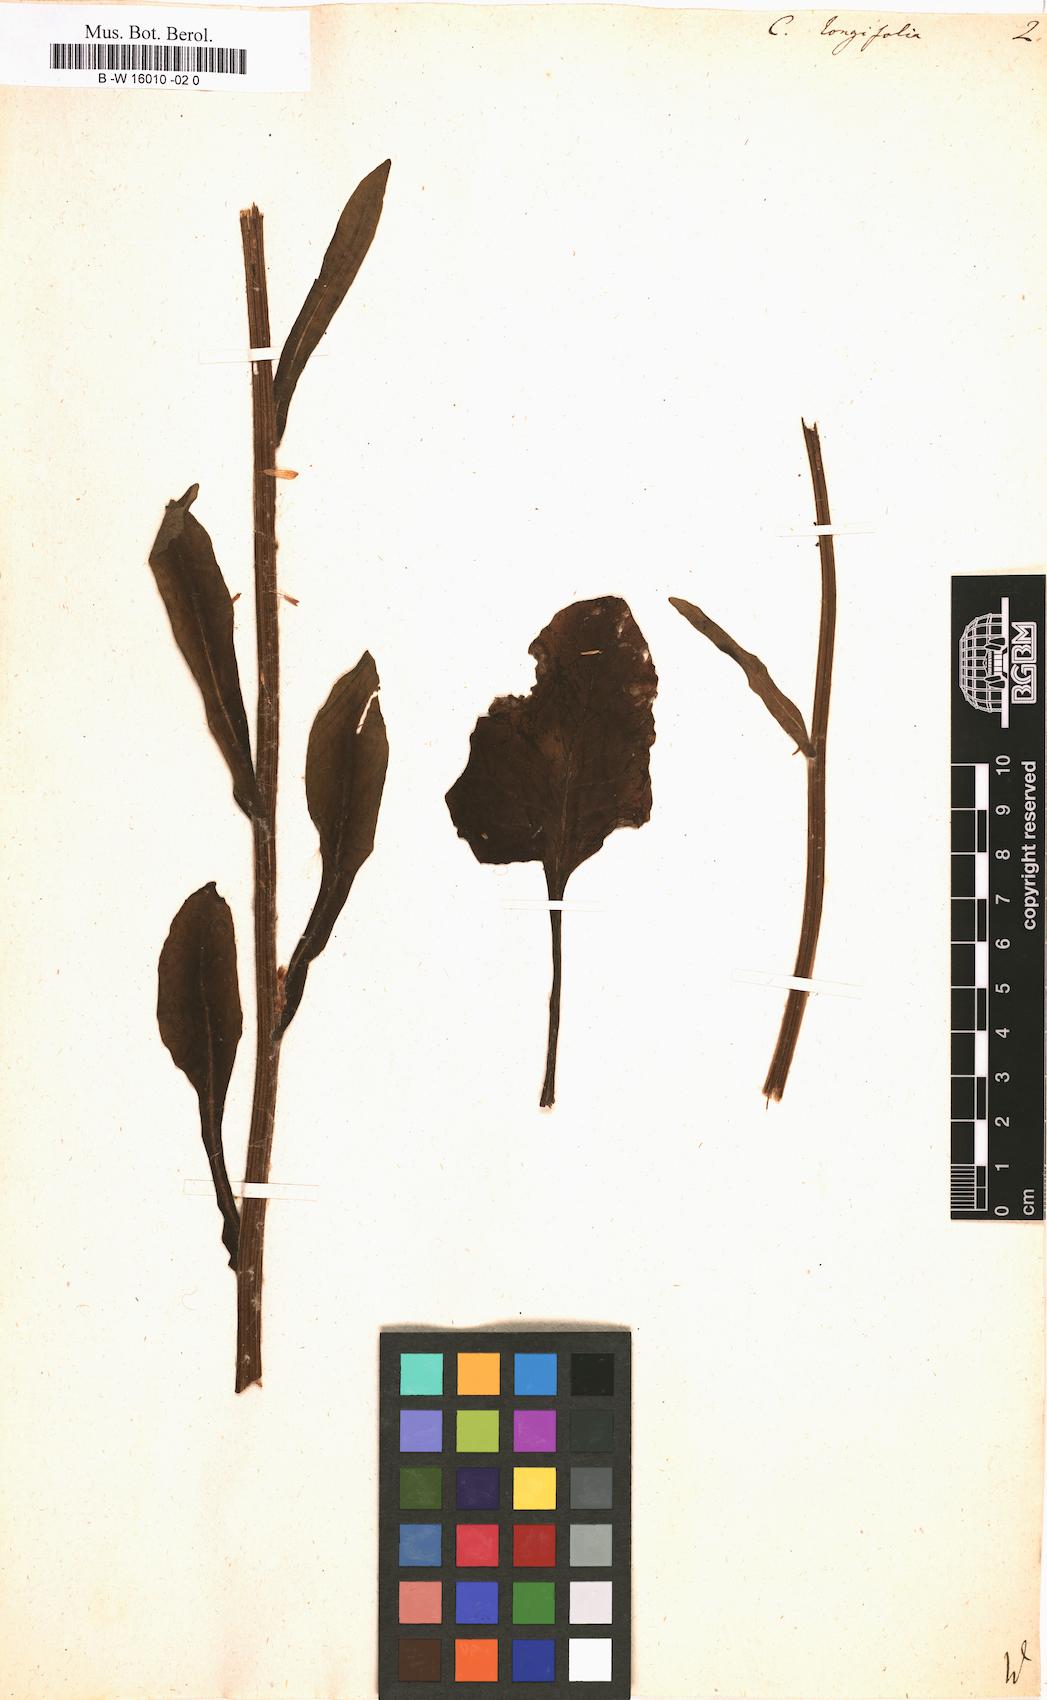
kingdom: Plantae
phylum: Tracheophyta
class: Magnoliopsida
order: Asterales
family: Asteraceae
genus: Tephroseris
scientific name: Tephroseris
